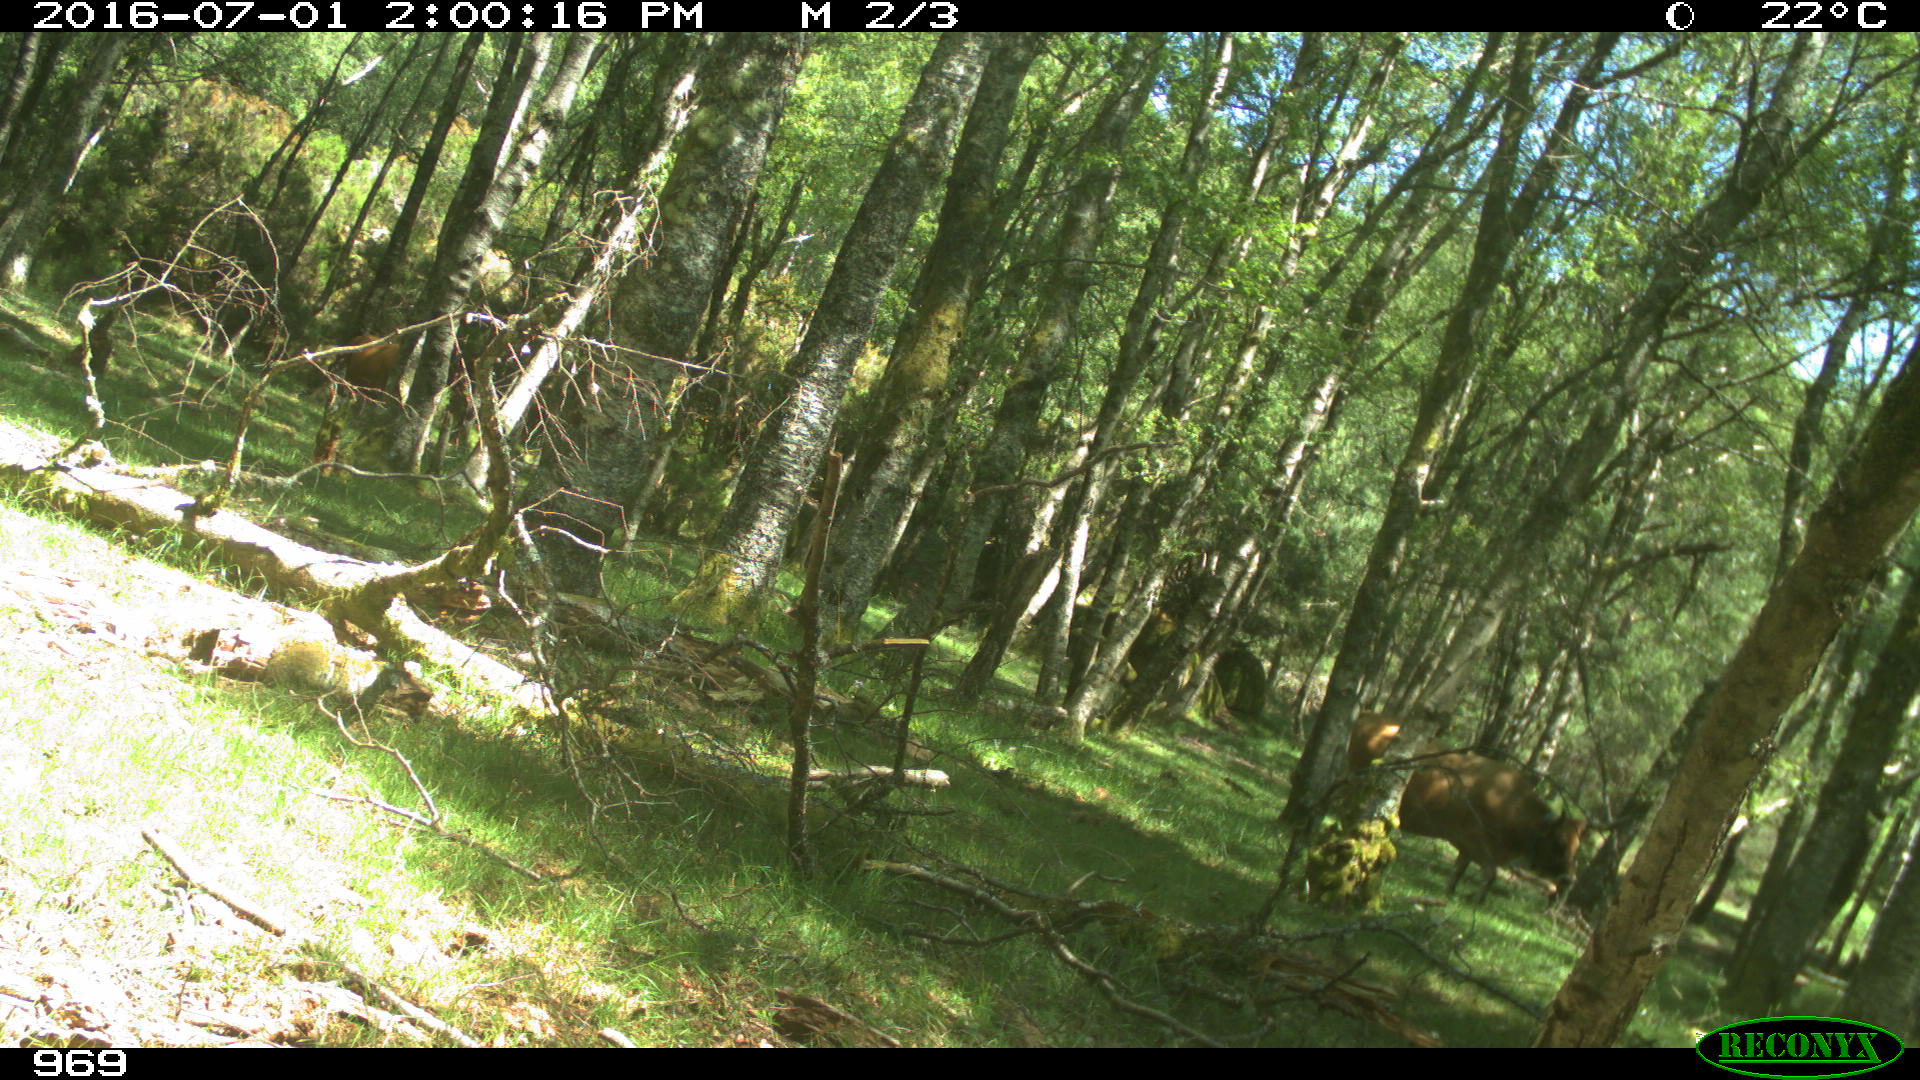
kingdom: Animalia
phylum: Chordata
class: Mammalia
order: Artiodactyla
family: Bovidae
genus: Bos
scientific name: Bos taurus
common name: Domesticated cattle
